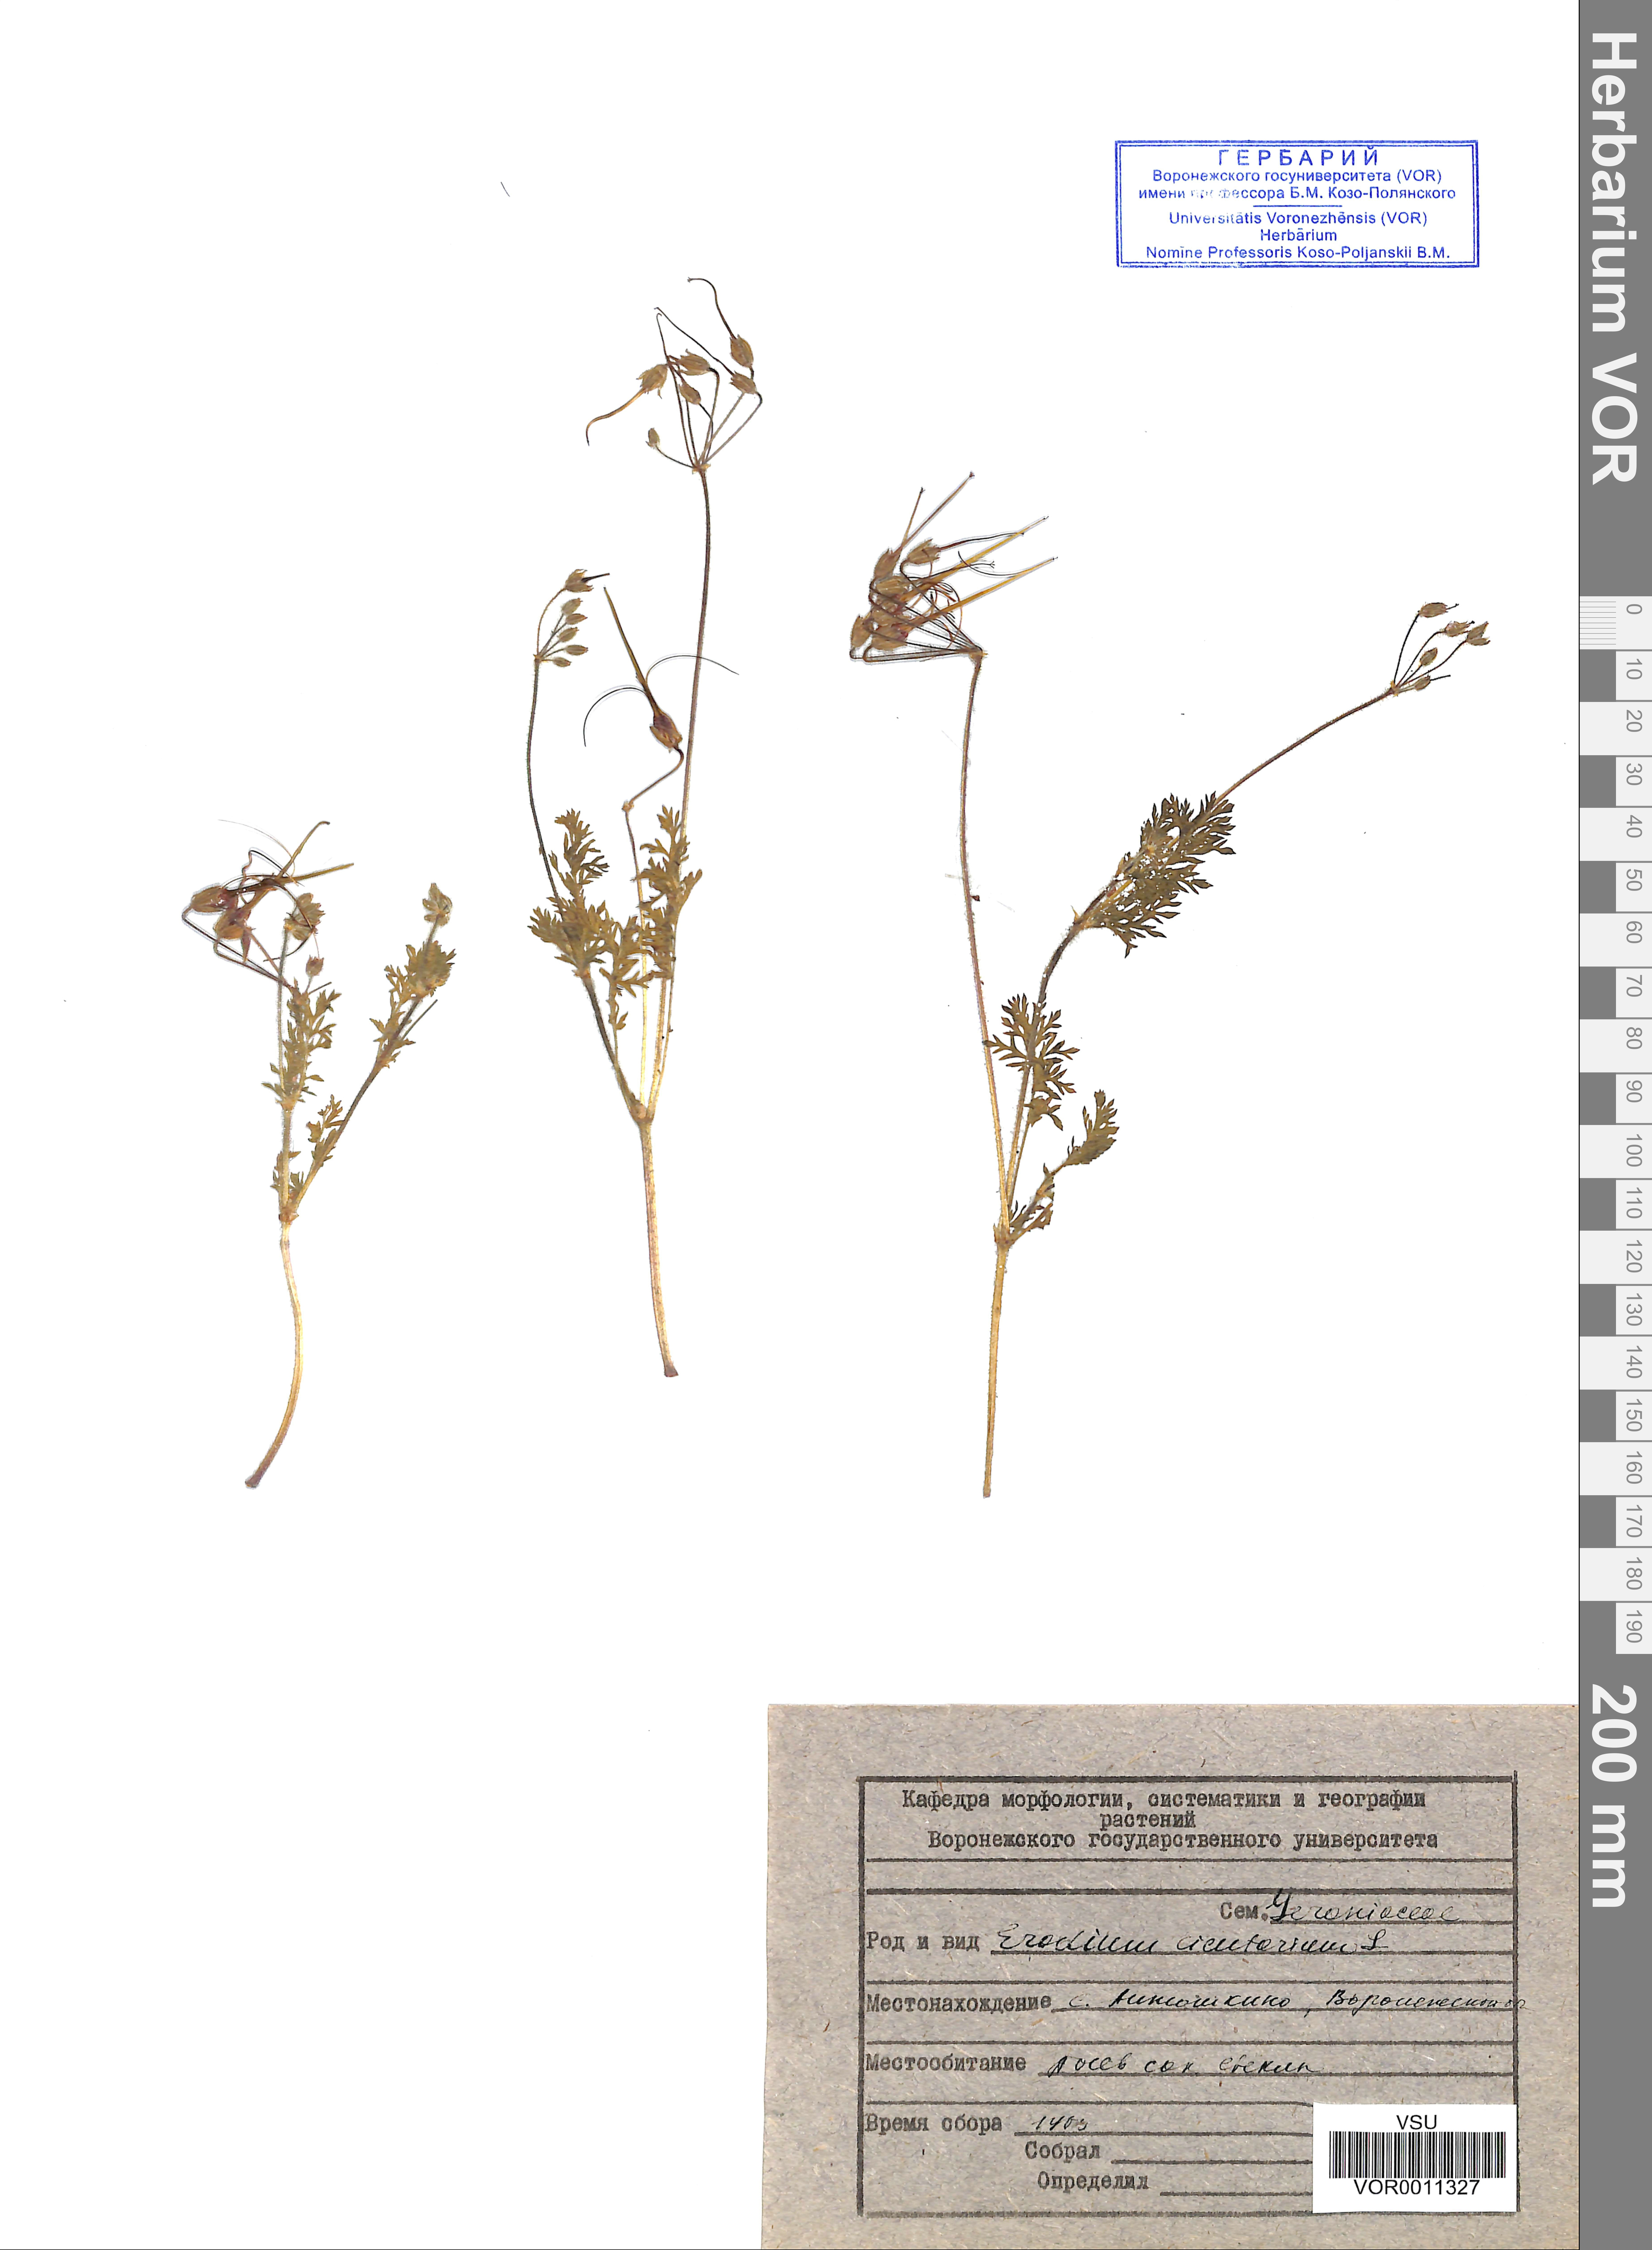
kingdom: Plantae
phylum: Tracheophyta
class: Magnoliopsida
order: Geraniales
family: Geraniaceae
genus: Erodium
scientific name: Erodium cicutarium
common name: Common stork's-bill
